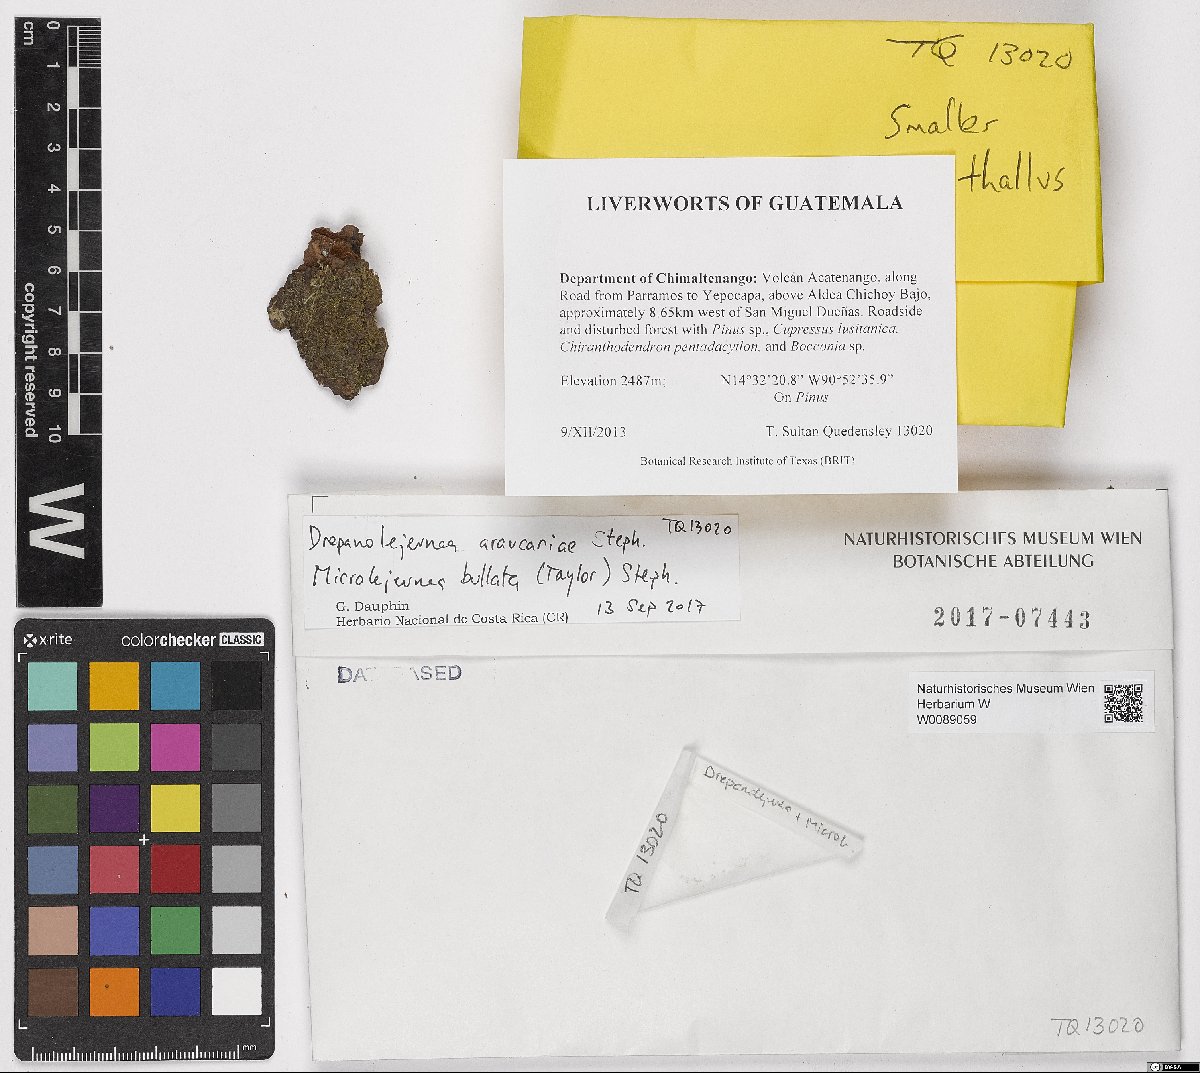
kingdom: Plantae
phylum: Marchantiophyta
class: Jungermanniopsida
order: Porellales
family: Lejeuneaceae
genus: Drepanolejeunea
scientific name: Drepanolejeunea araucariae
